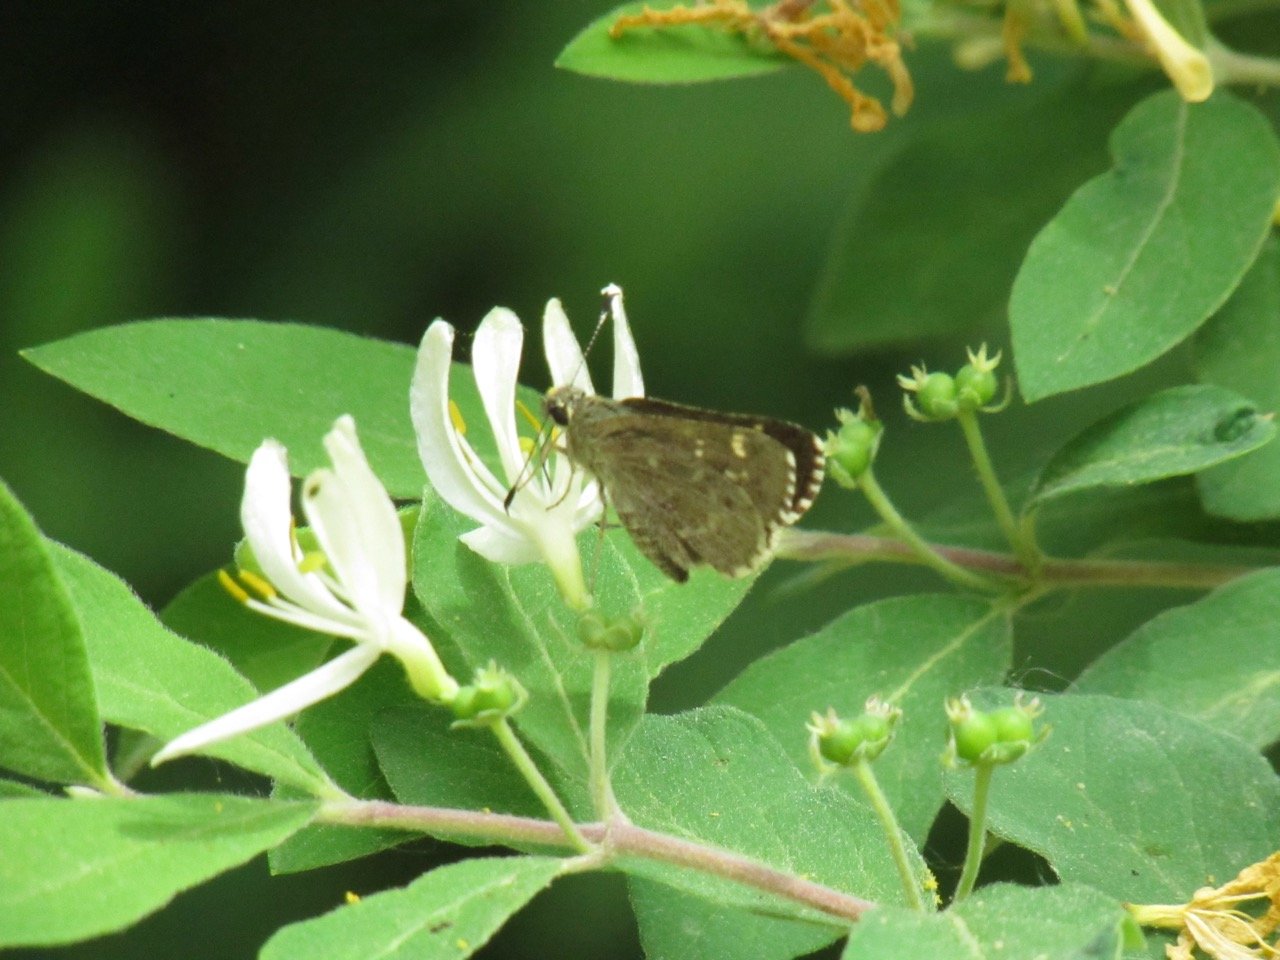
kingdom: Animalia
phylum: Arthropoda
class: Insecta
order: Lepidoptera
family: Hesperiidae
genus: Mastor
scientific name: Mastor hegon
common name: Pepper and Salt Skipper
